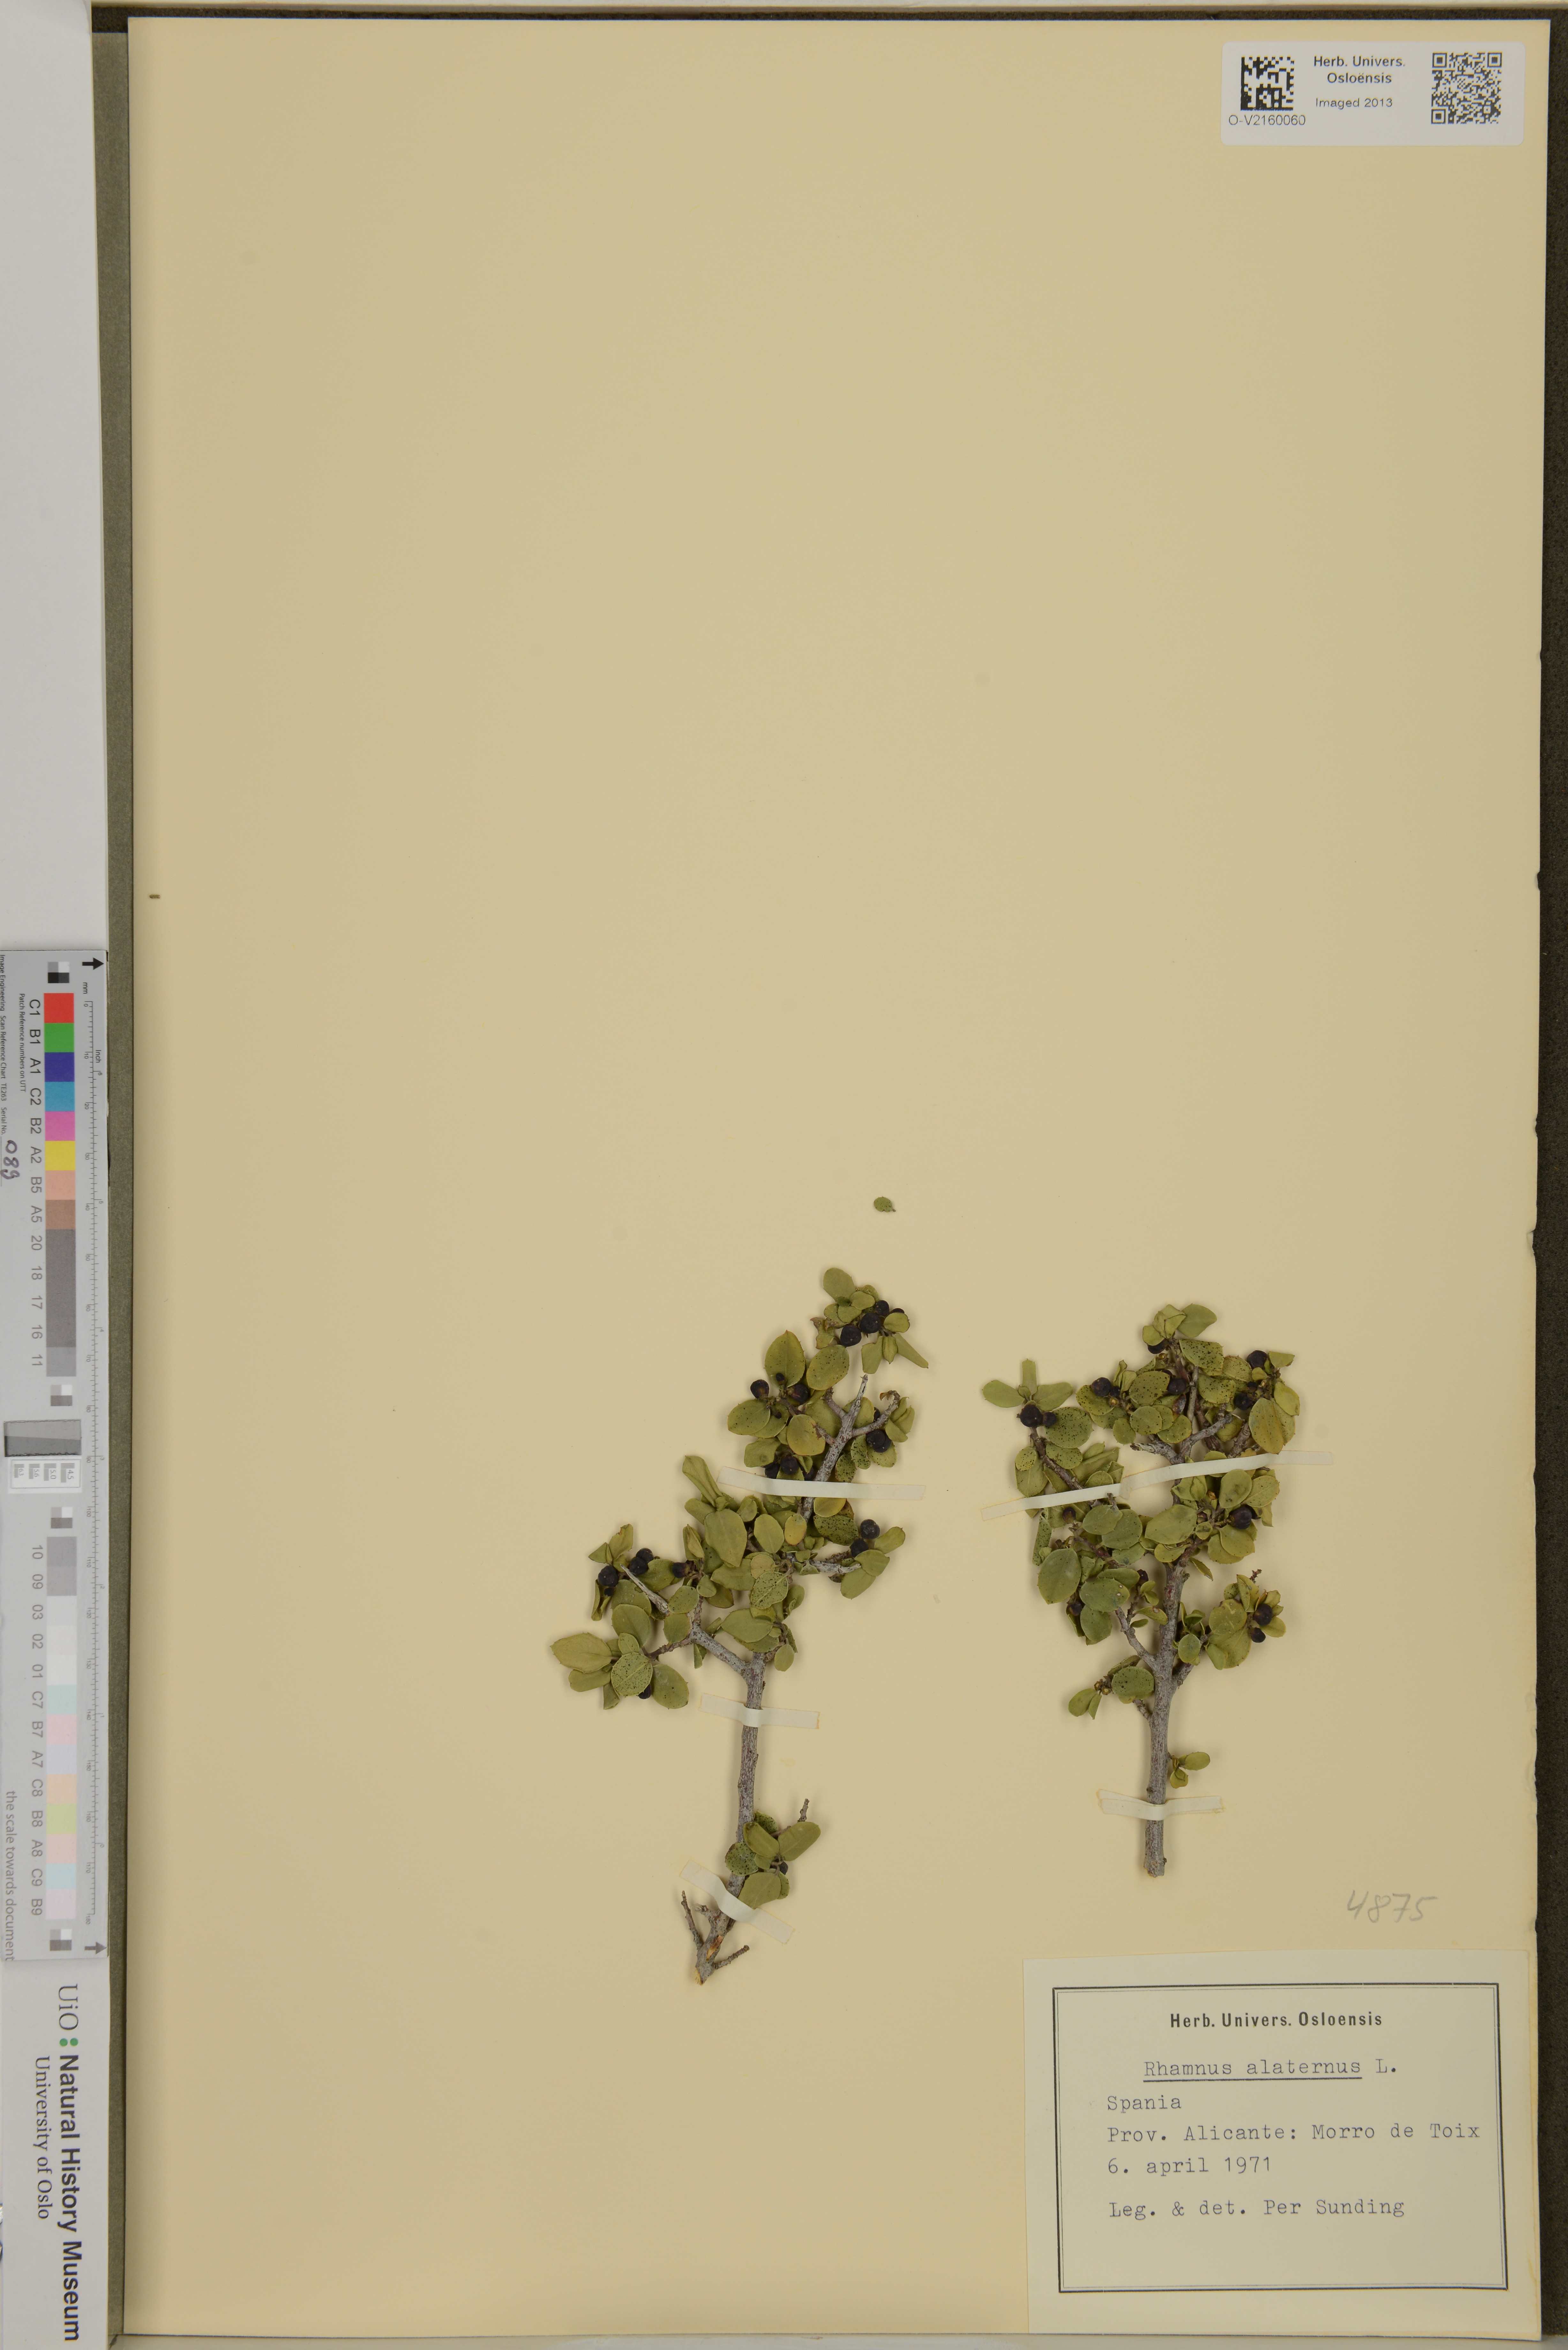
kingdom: Plantae
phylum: Tracheophyta
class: Magnoliopsida
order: Rosales
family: Rhamnaceae
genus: Rhamnus
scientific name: Rhamnus alaternus
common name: Mediterranean buckthorn
